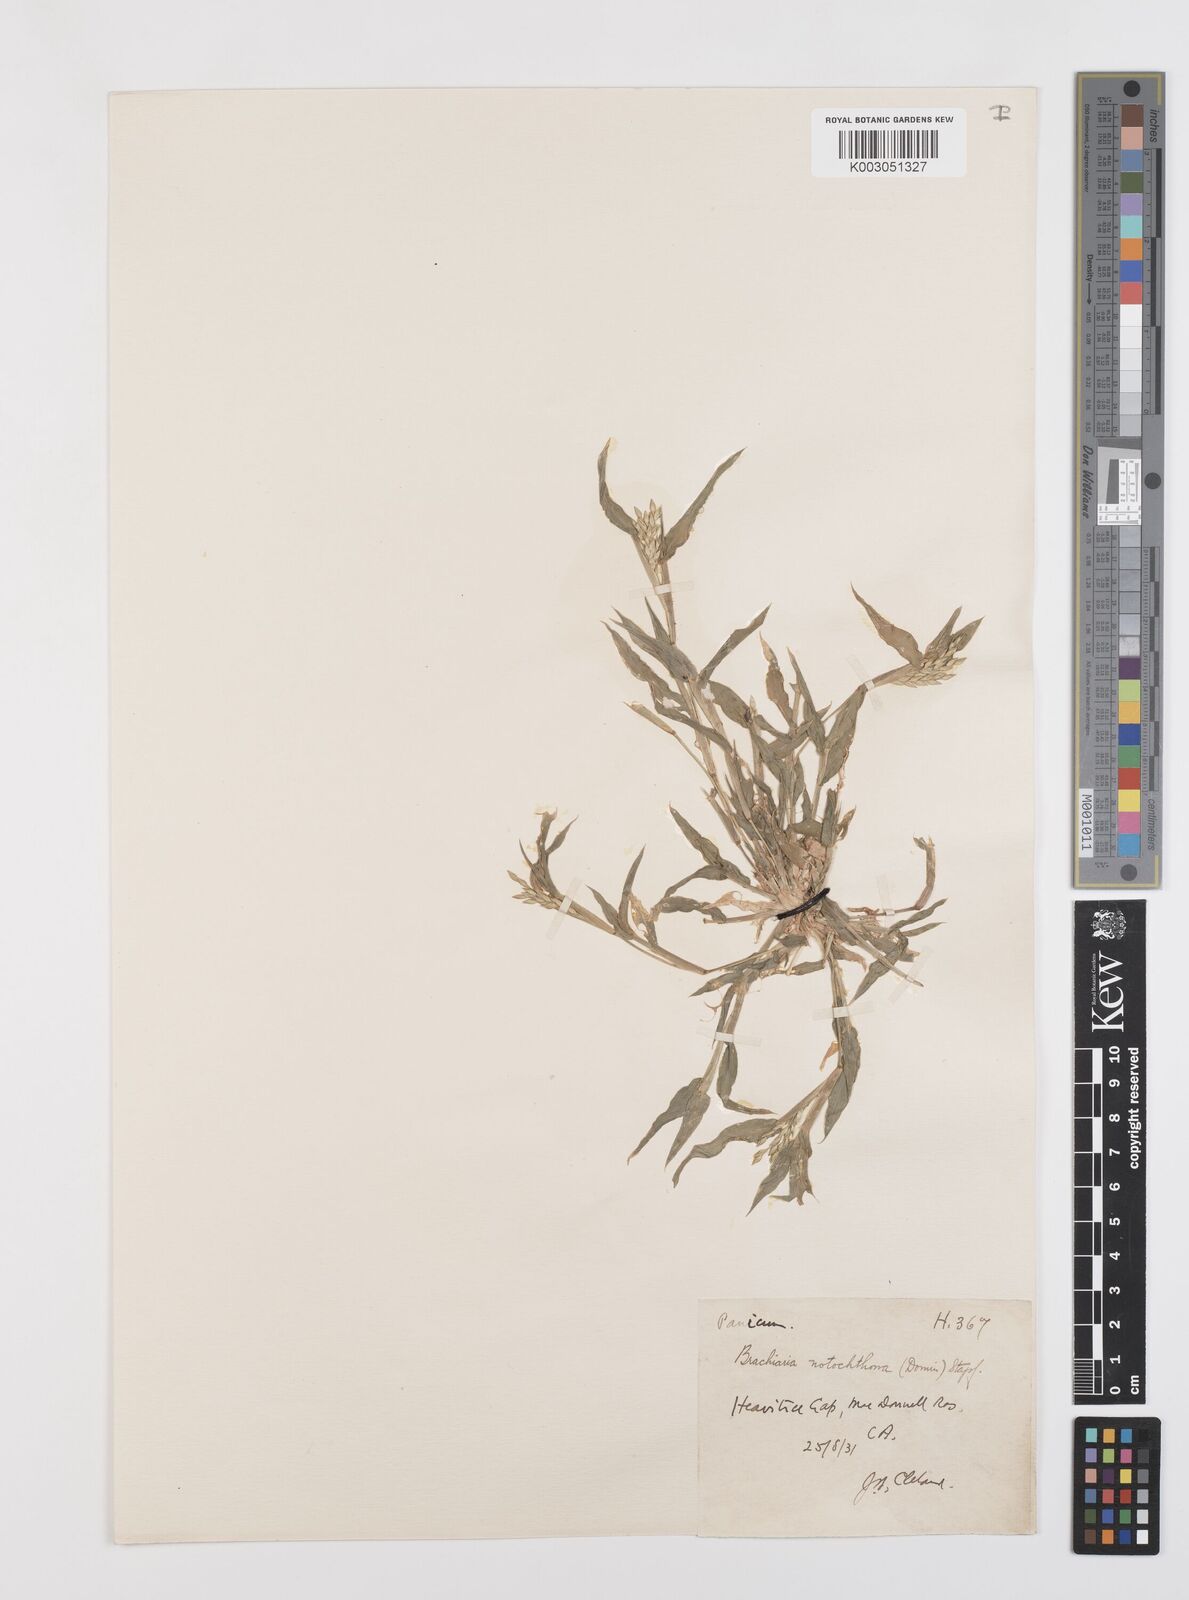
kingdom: Plantae
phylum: Tracheophyta
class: Liliopsida
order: Poales
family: Poaceae
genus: Urochloa
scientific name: Urochloa notochthona
